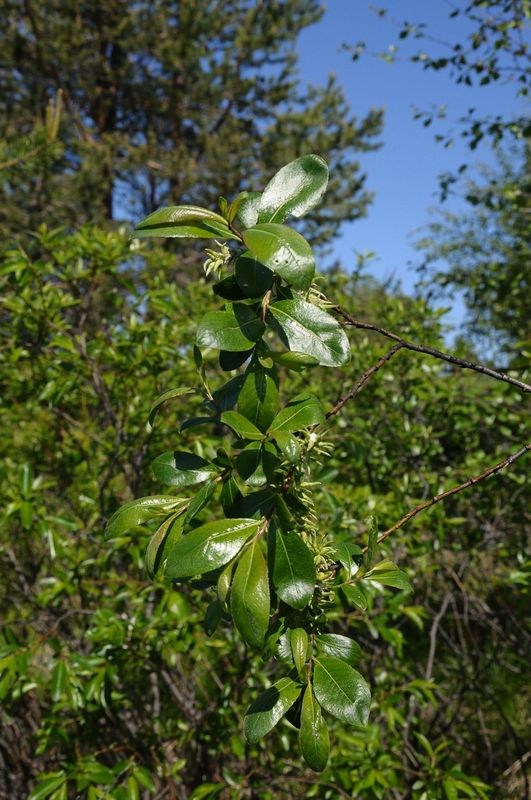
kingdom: Plantae
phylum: Tracheophyta
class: Magnoliopsida
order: Malpighiales
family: Salicaceae
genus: Salix
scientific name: Salix
